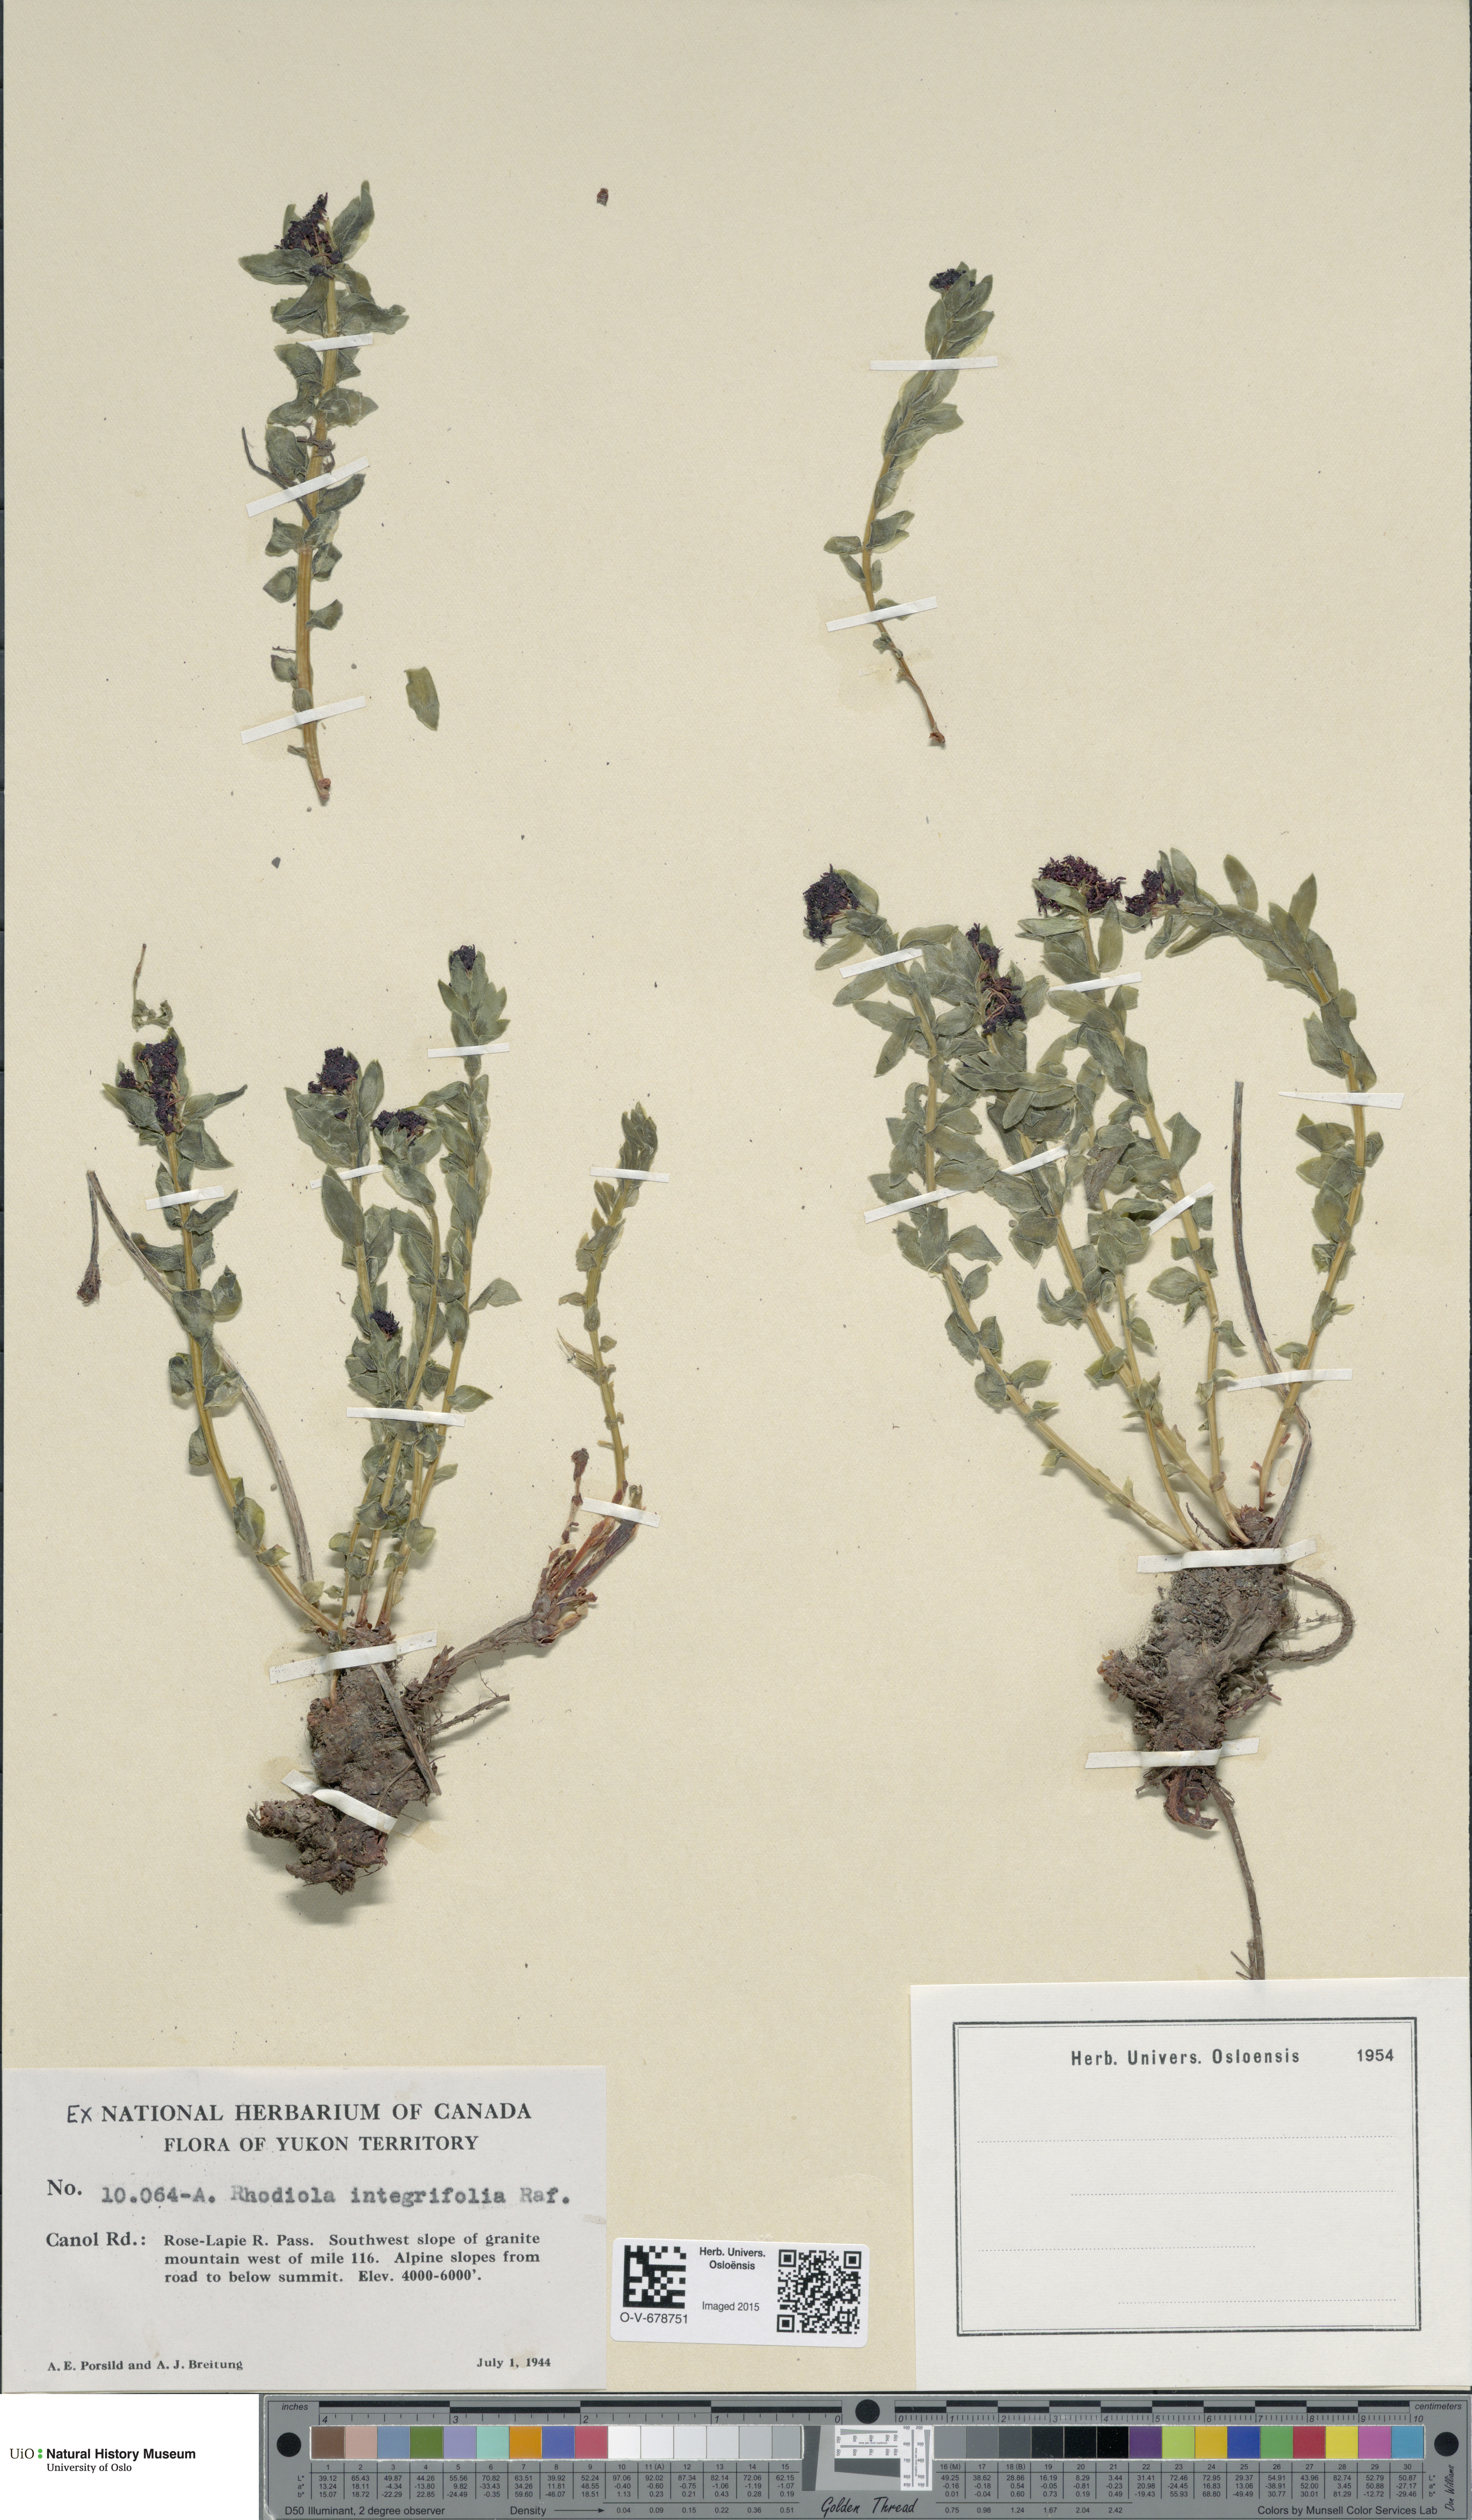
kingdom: Plantae
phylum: Tracheophyta
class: Magnoliopsida
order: Saxifragales
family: Crassulaceae
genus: Rhodiola
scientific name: Rhodiola integrifolia
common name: Western roseroot
